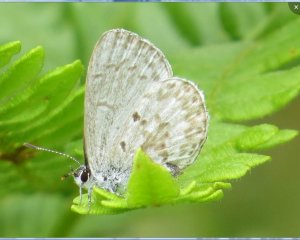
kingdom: Animalia
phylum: Arthropoda
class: Insecta
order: Lepidoptera
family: Lycaenidae
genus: Celastrina
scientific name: Celastrina serotina
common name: Cherry Gall Azure
